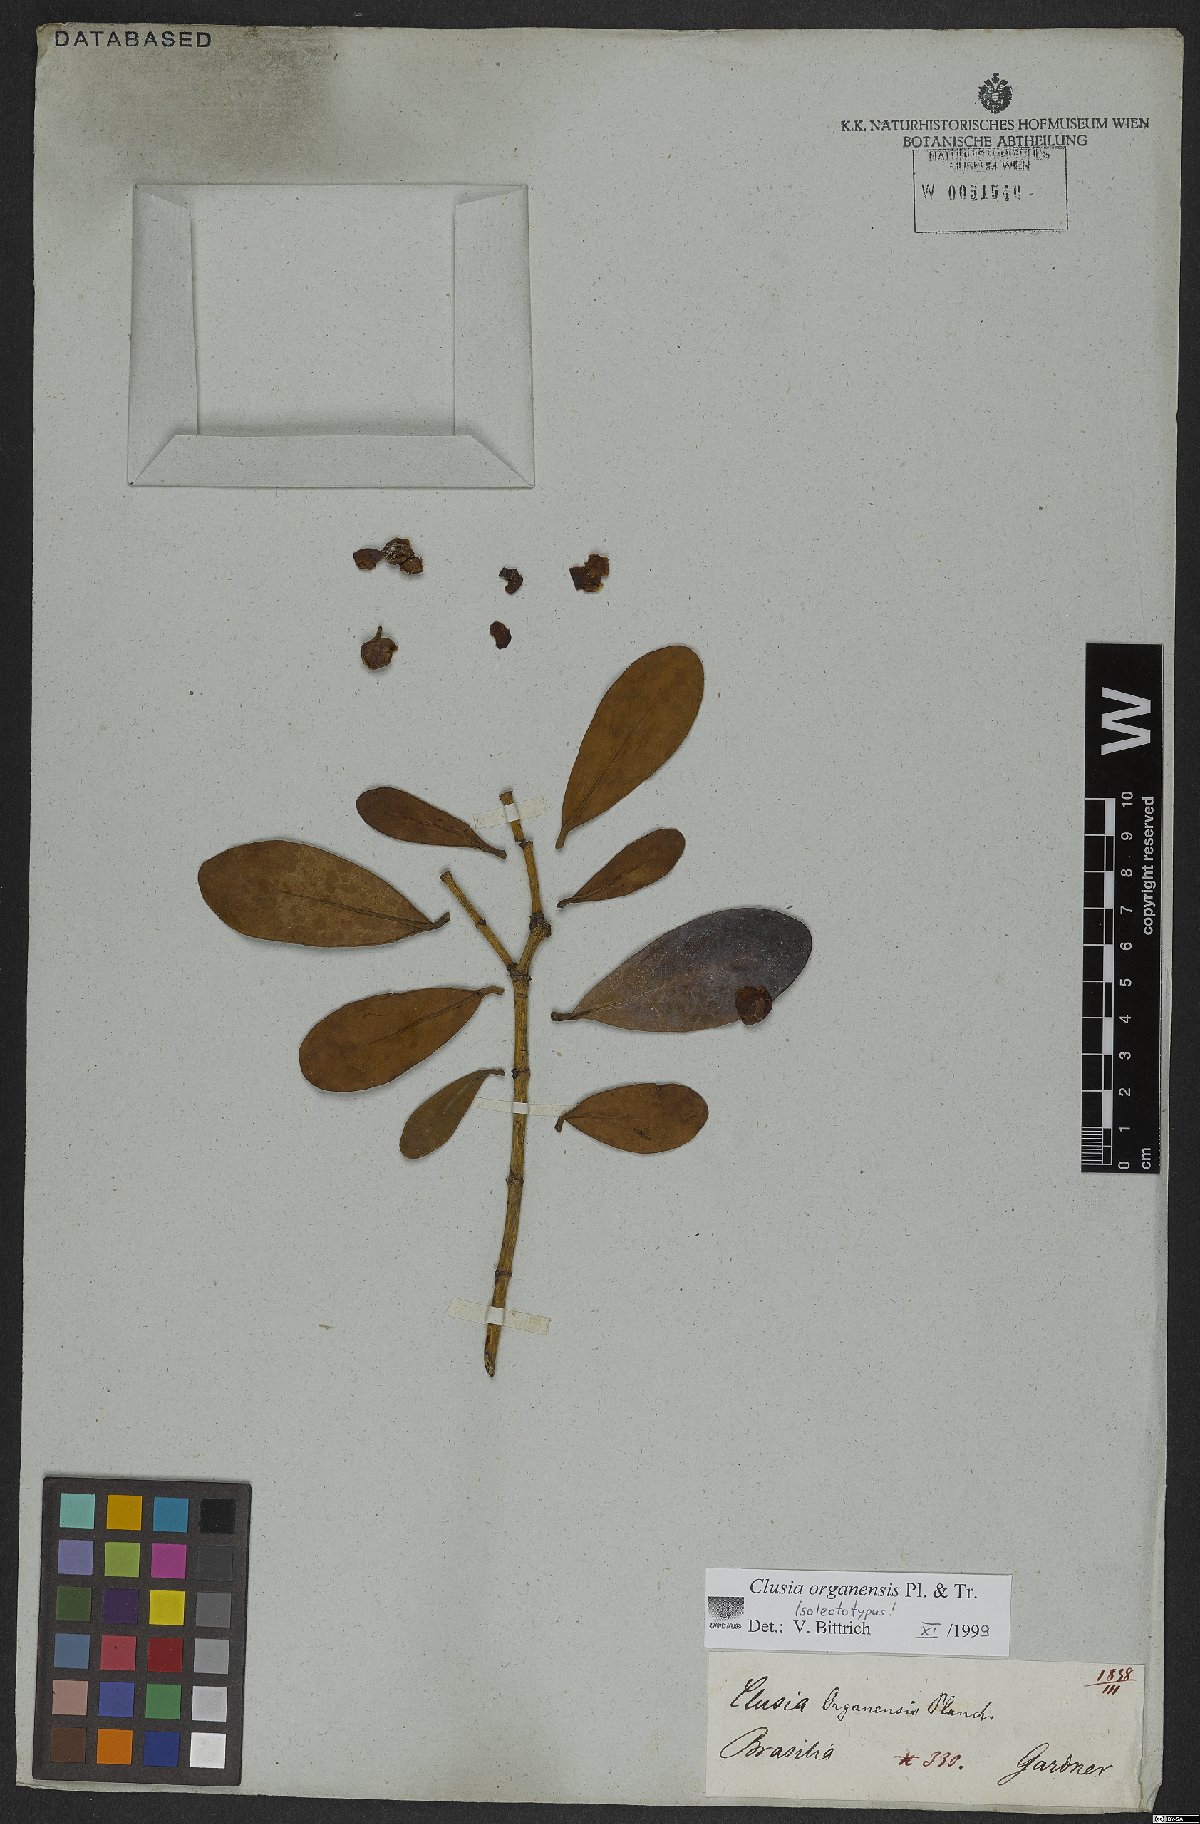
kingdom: Plantae
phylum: Tracheophyta
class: Magnoliopsida
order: Malpighiales
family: Clusiaceae
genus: Clusia
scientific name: Clusia organensis
